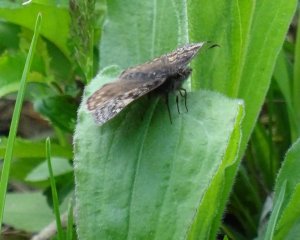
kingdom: Animalia
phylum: Arthropoda
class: Insecta
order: Lepidoptera
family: Hesperiidae
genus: Erynnis
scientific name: Erynnis
